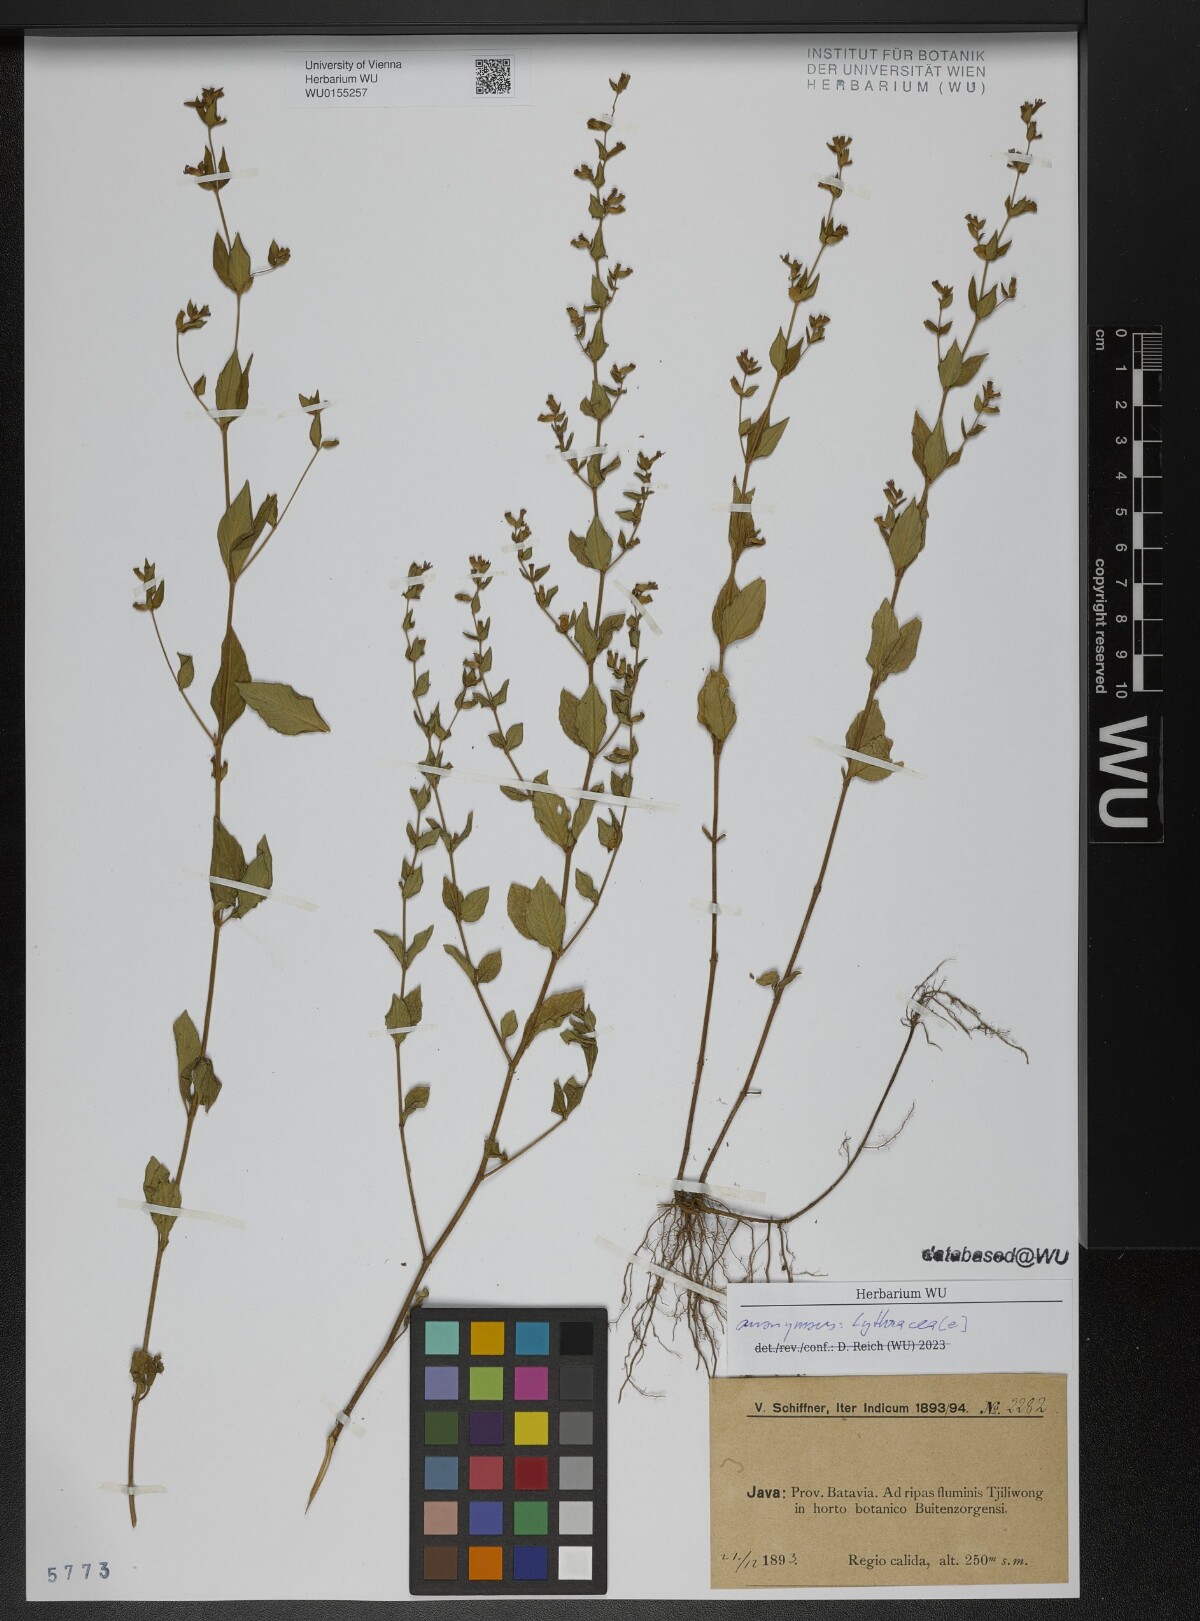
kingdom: Plantae
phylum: Tracheophyta
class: Magnoliopsida
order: Myrtales
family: Lythraceae
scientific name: Lythraceae
